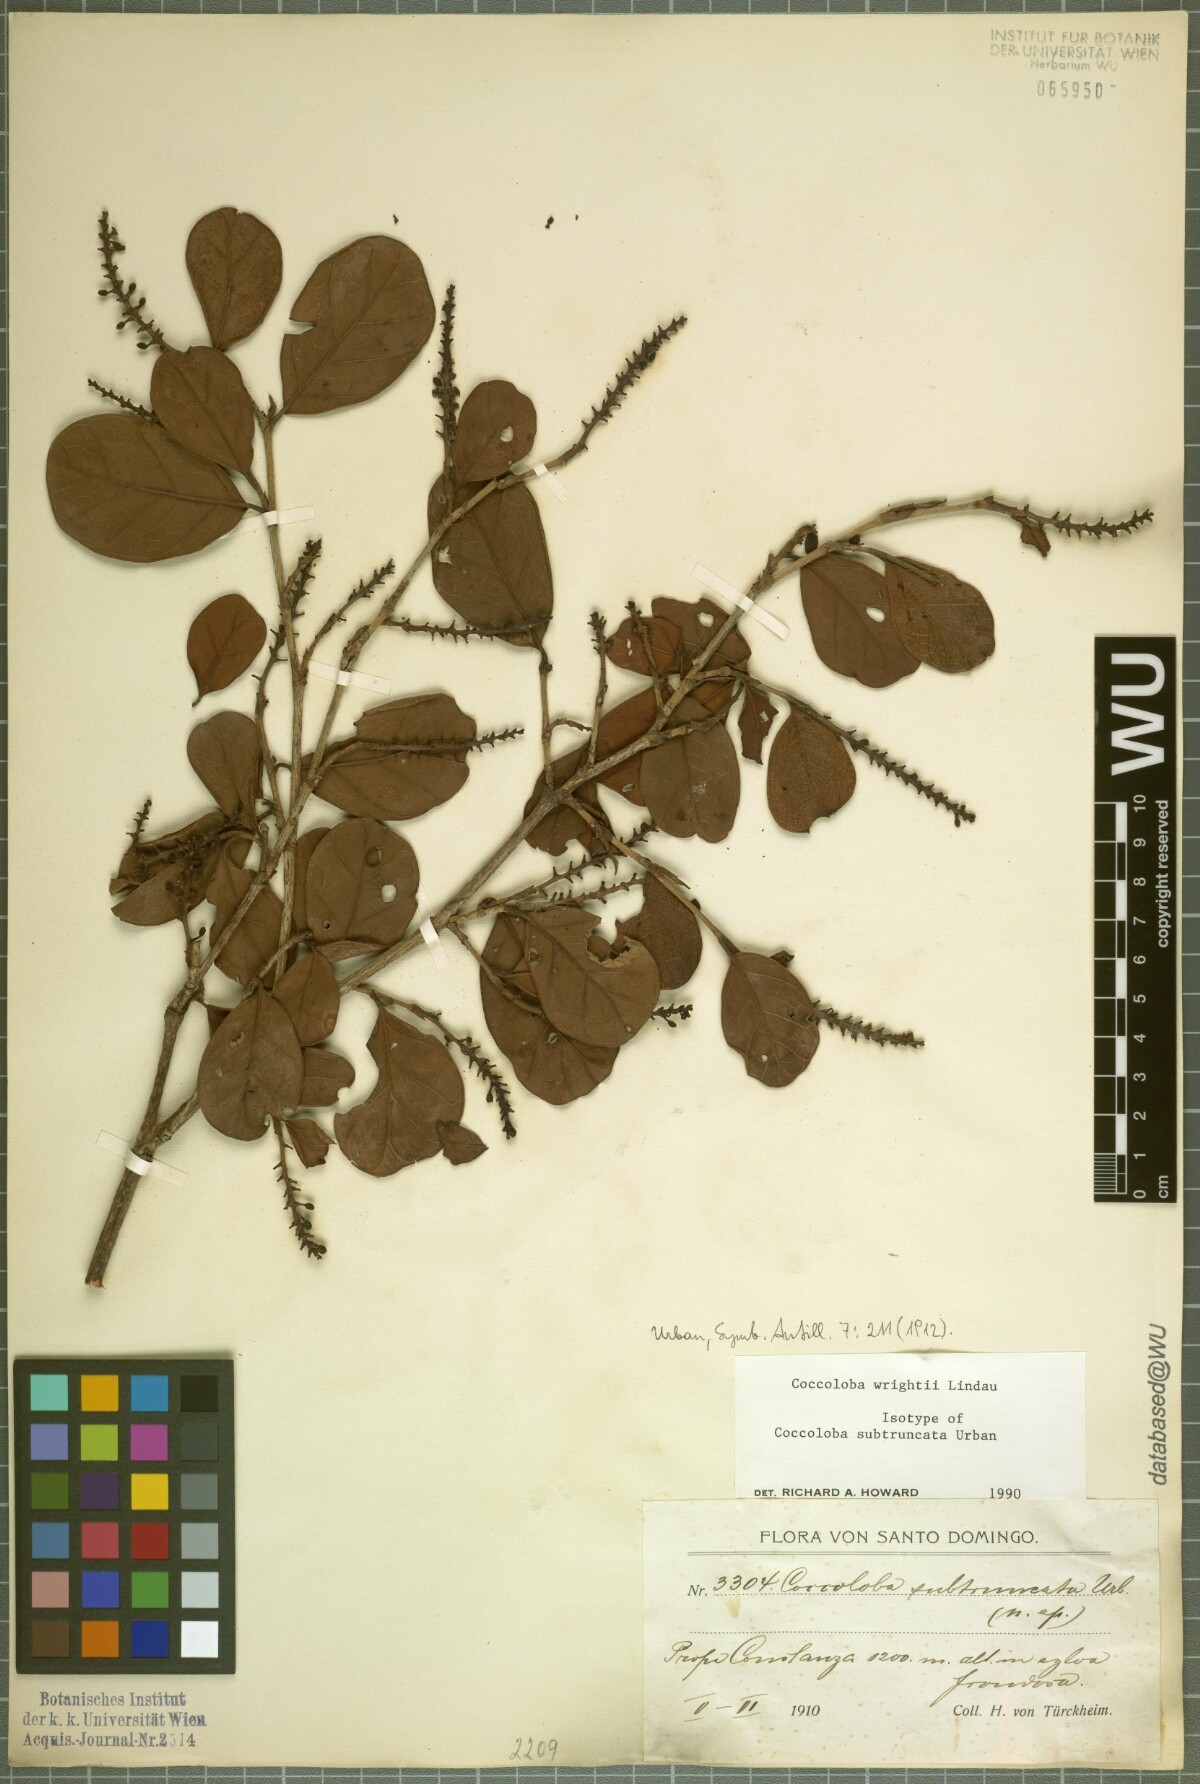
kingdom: Plantae
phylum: Tracheophyta
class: Magnoliopsida
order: Caryophyllales
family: Polygonaceae
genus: Coccoloba
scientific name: Coccoloba wrightii
